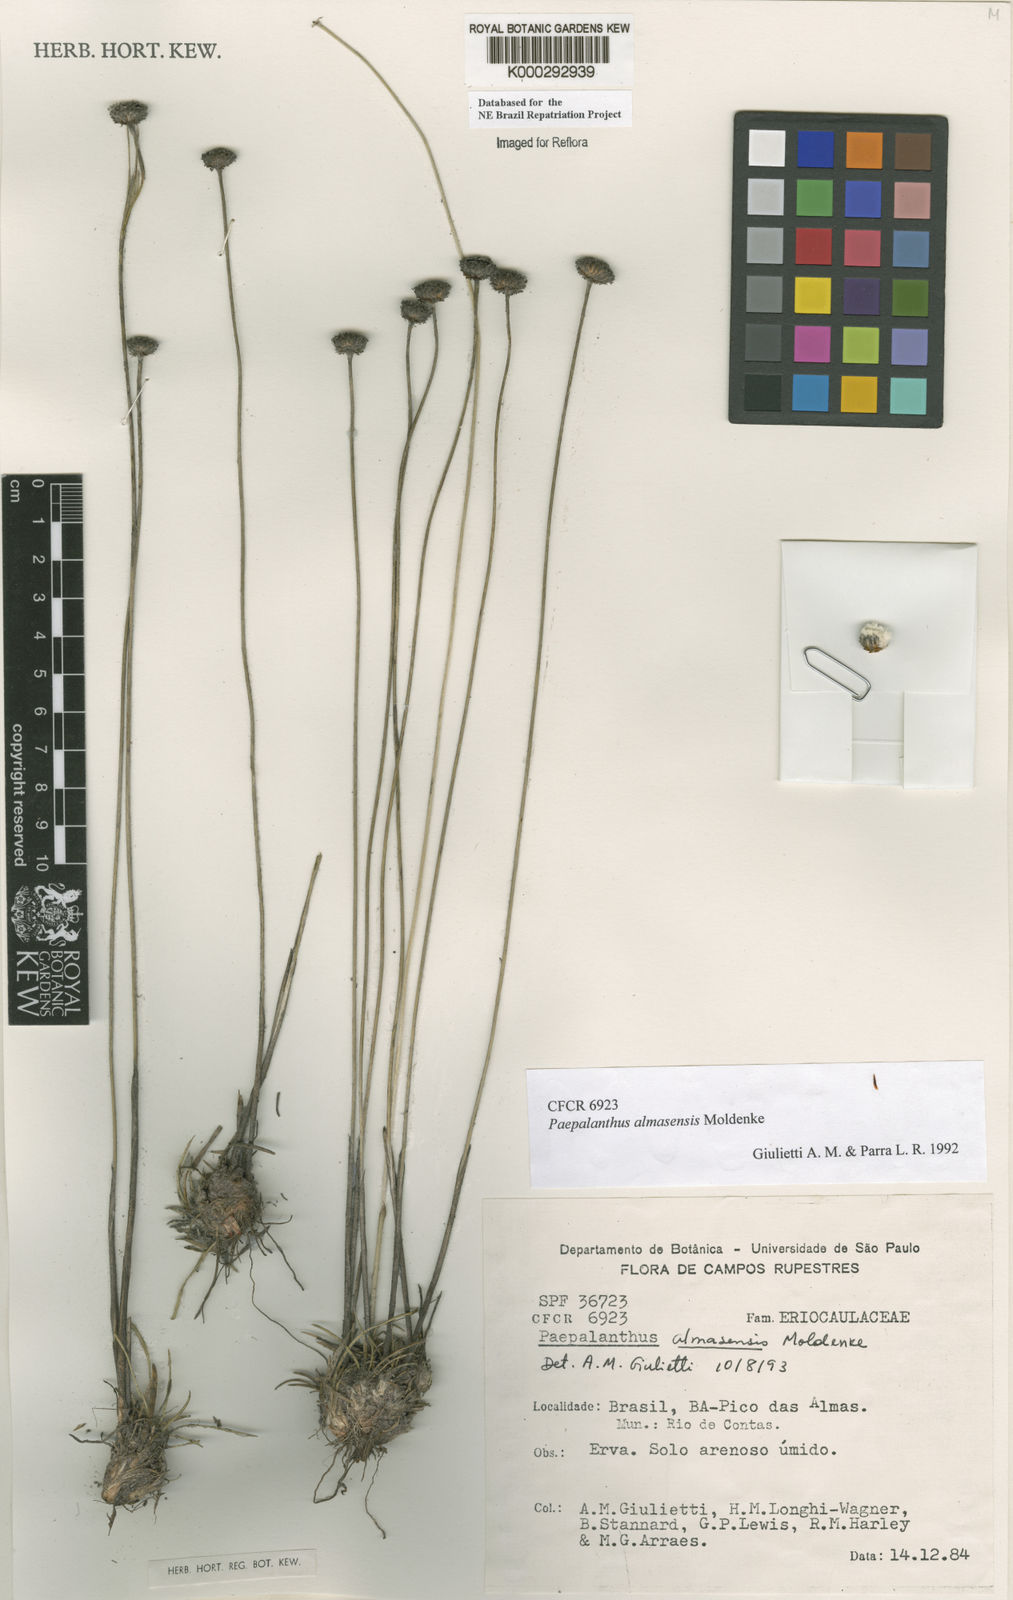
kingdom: Plantae
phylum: Tracheophyta
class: Liliopsida
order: Poales
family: Eriocaulaceae
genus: Paepalanthus
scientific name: Paepalanthus almasensis
